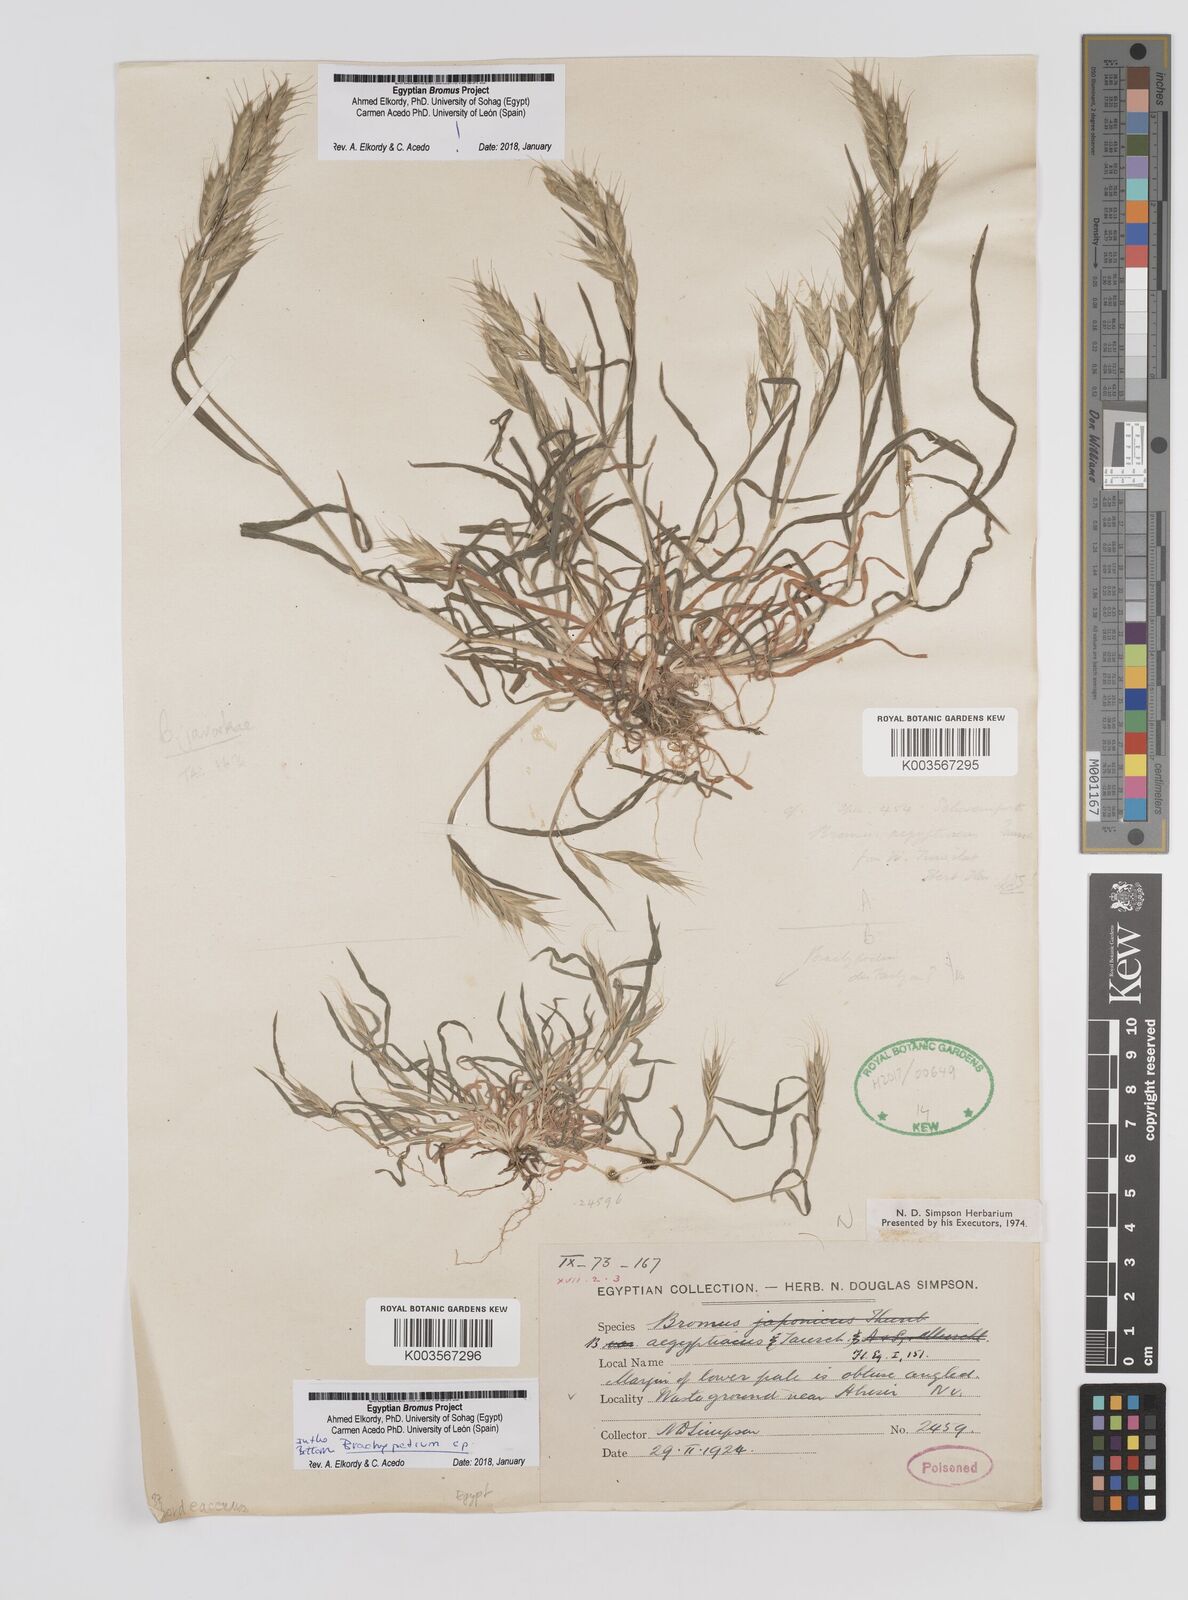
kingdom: Plantae
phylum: Tracheophyta
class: Liliopsida
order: Poales
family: Poaceae
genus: Bromus
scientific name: Bromus hordeaceus
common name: Soft brome
